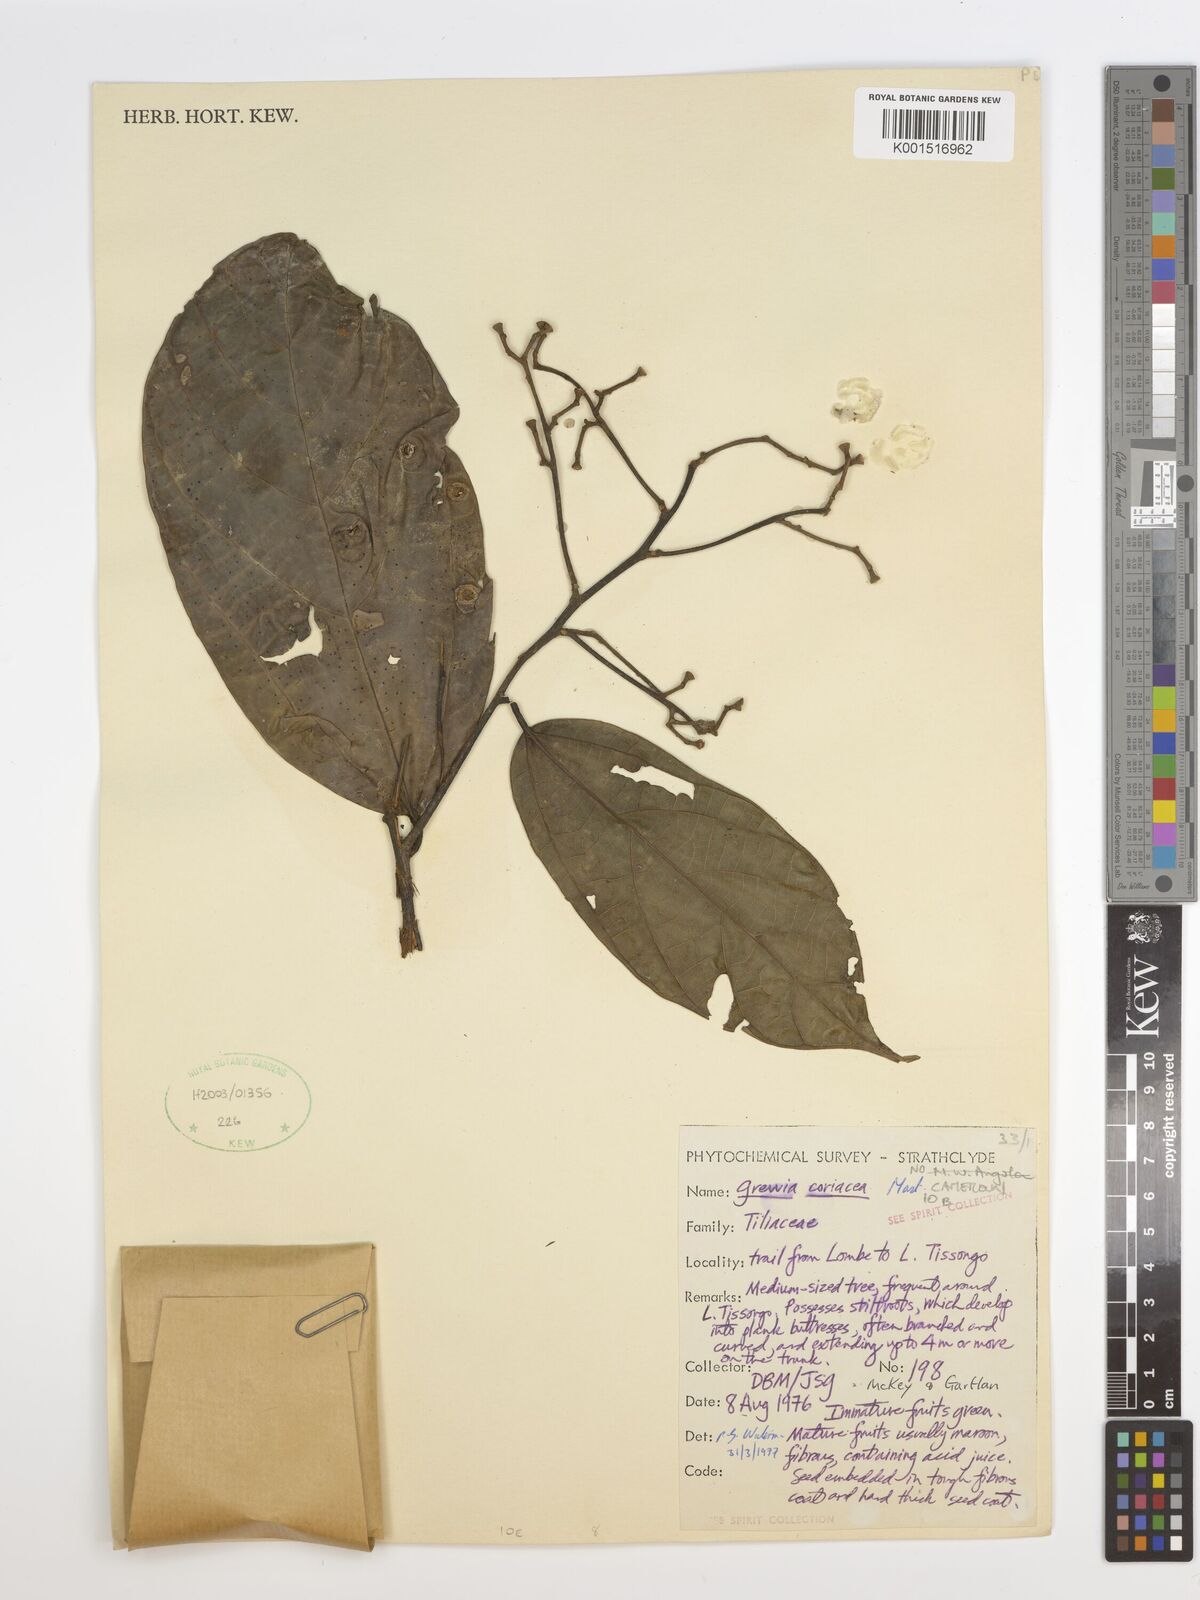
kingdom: Plantae
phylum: Tracheophyta
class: Magnoliopsida
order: Malvales
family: Malvaceae
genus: Microcos
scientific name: Microcos coriacea
